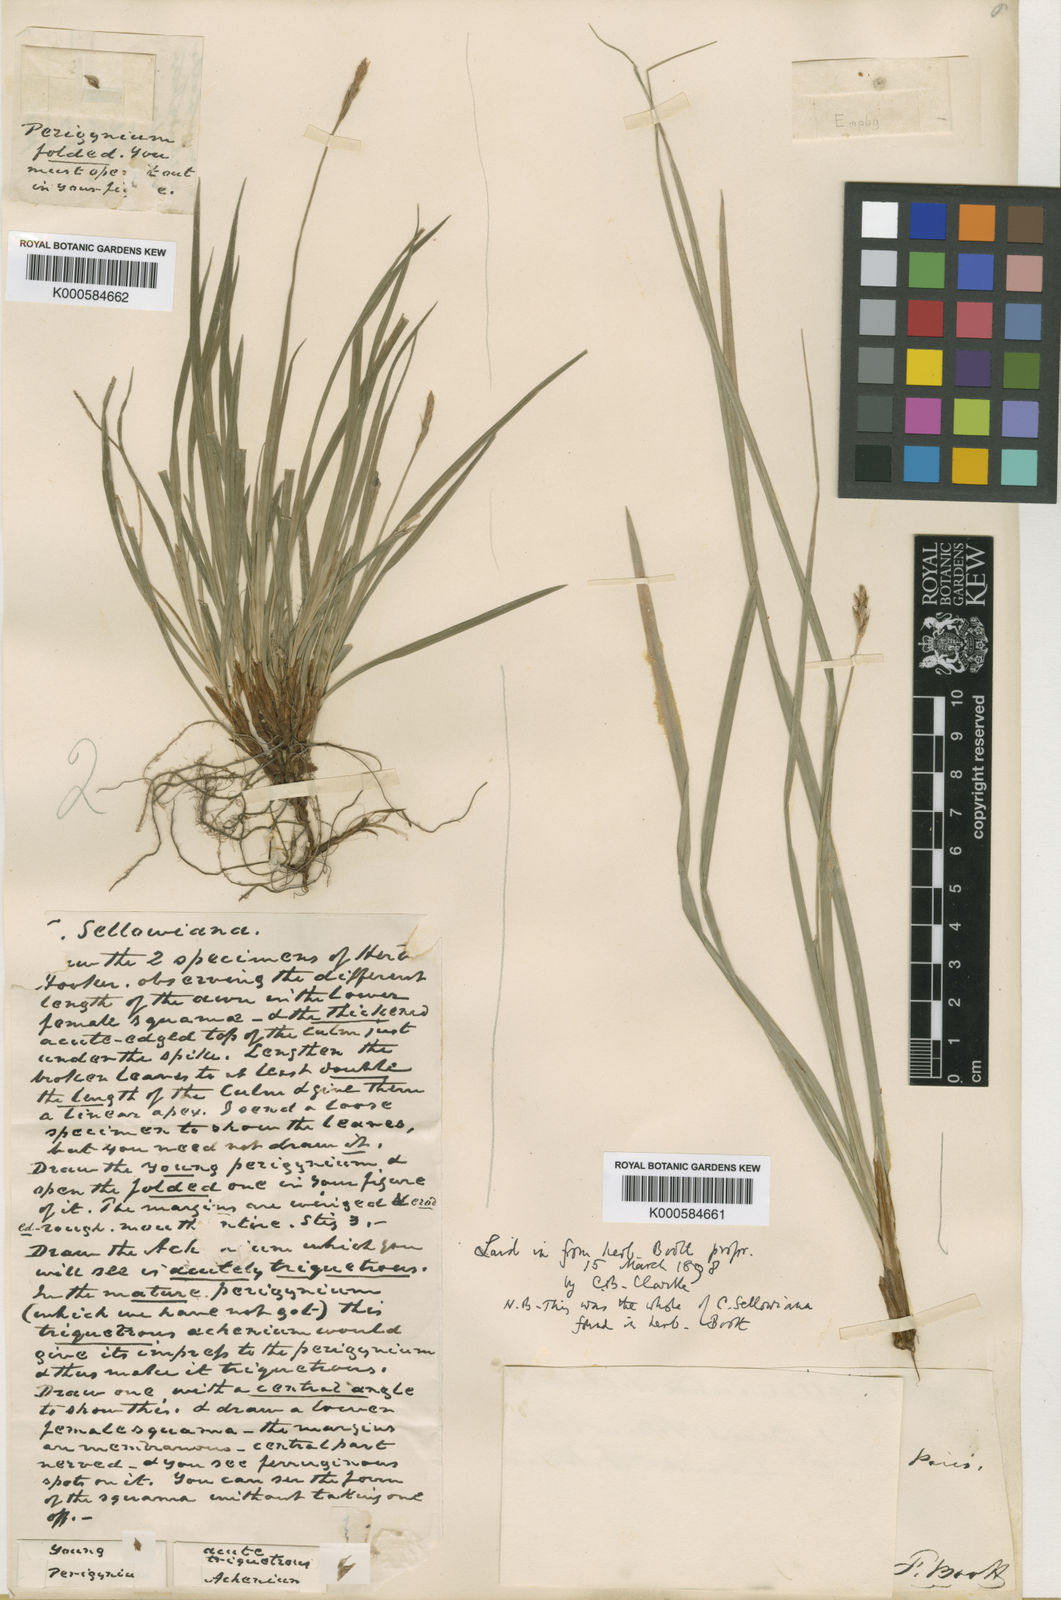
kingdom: Plantae
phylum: Tracheophyta
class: Liliopsida
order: Poales
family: Cyperaceae
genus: Carex
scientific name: Carex sellowiana
